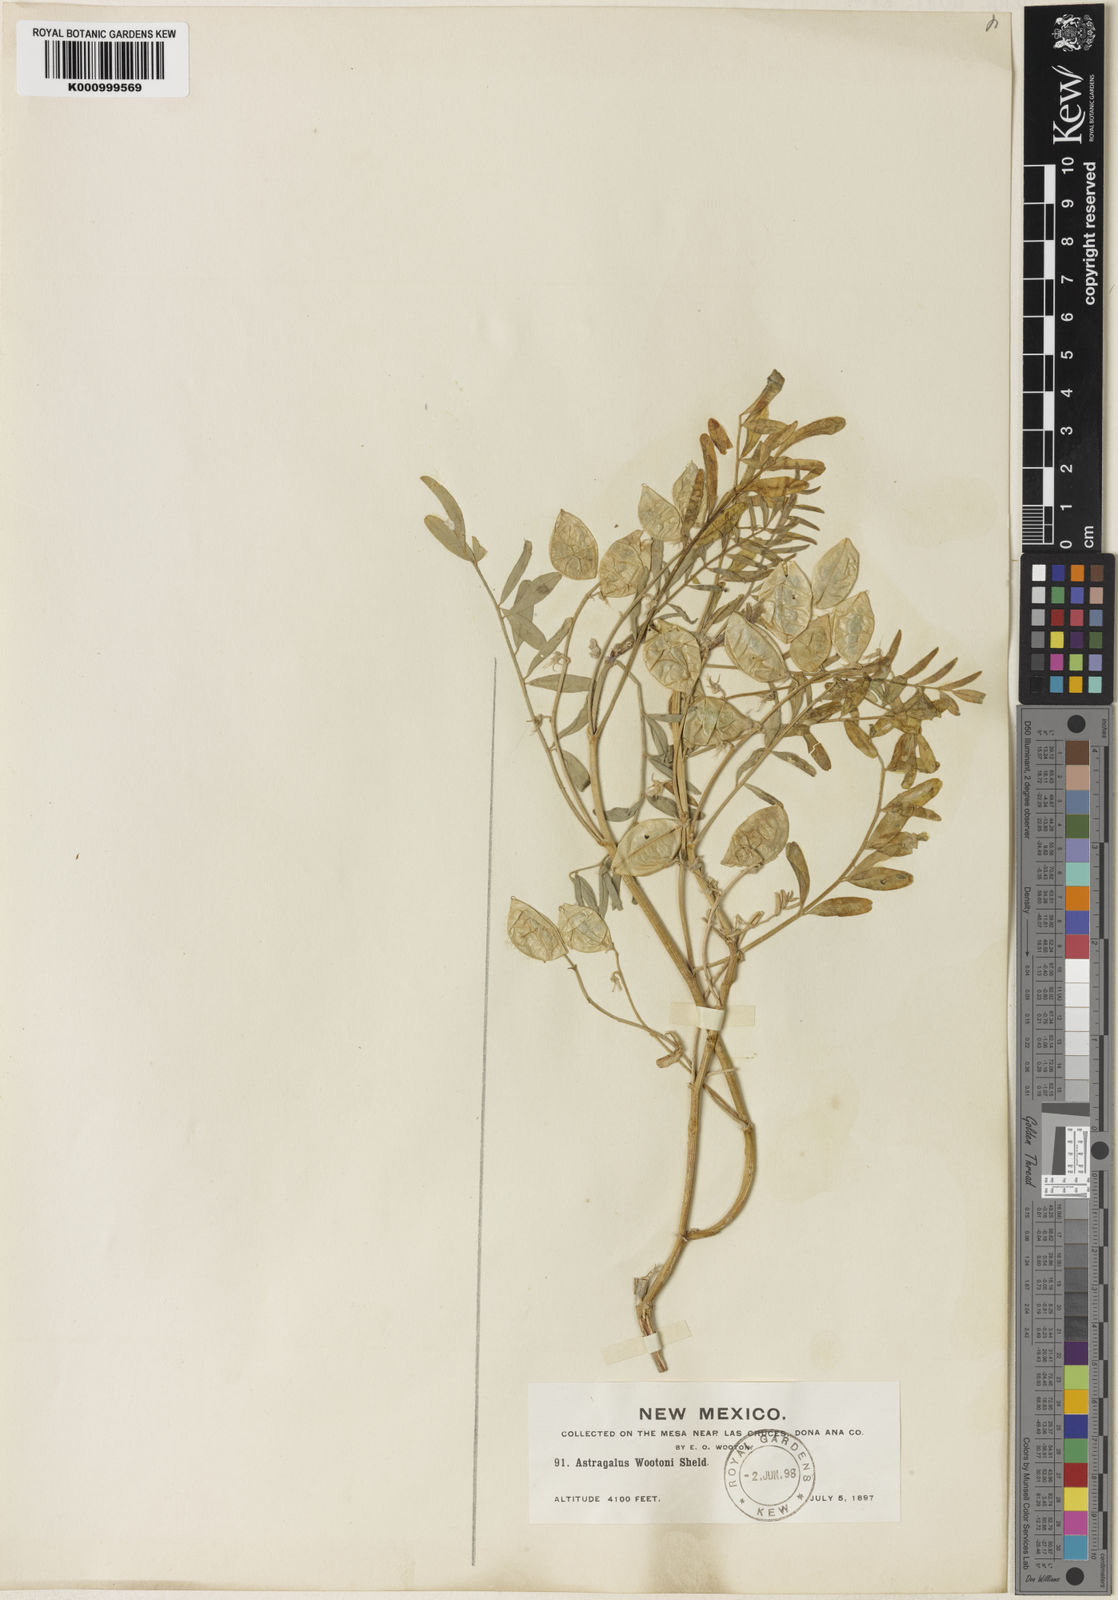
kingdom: Plantae
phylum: Tracheophyta
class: Magnoliopsida
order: Fabales
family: Fabaceae
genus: Astragalus
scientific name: Astragalus wootonii
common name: Wooton's milk-vetch
